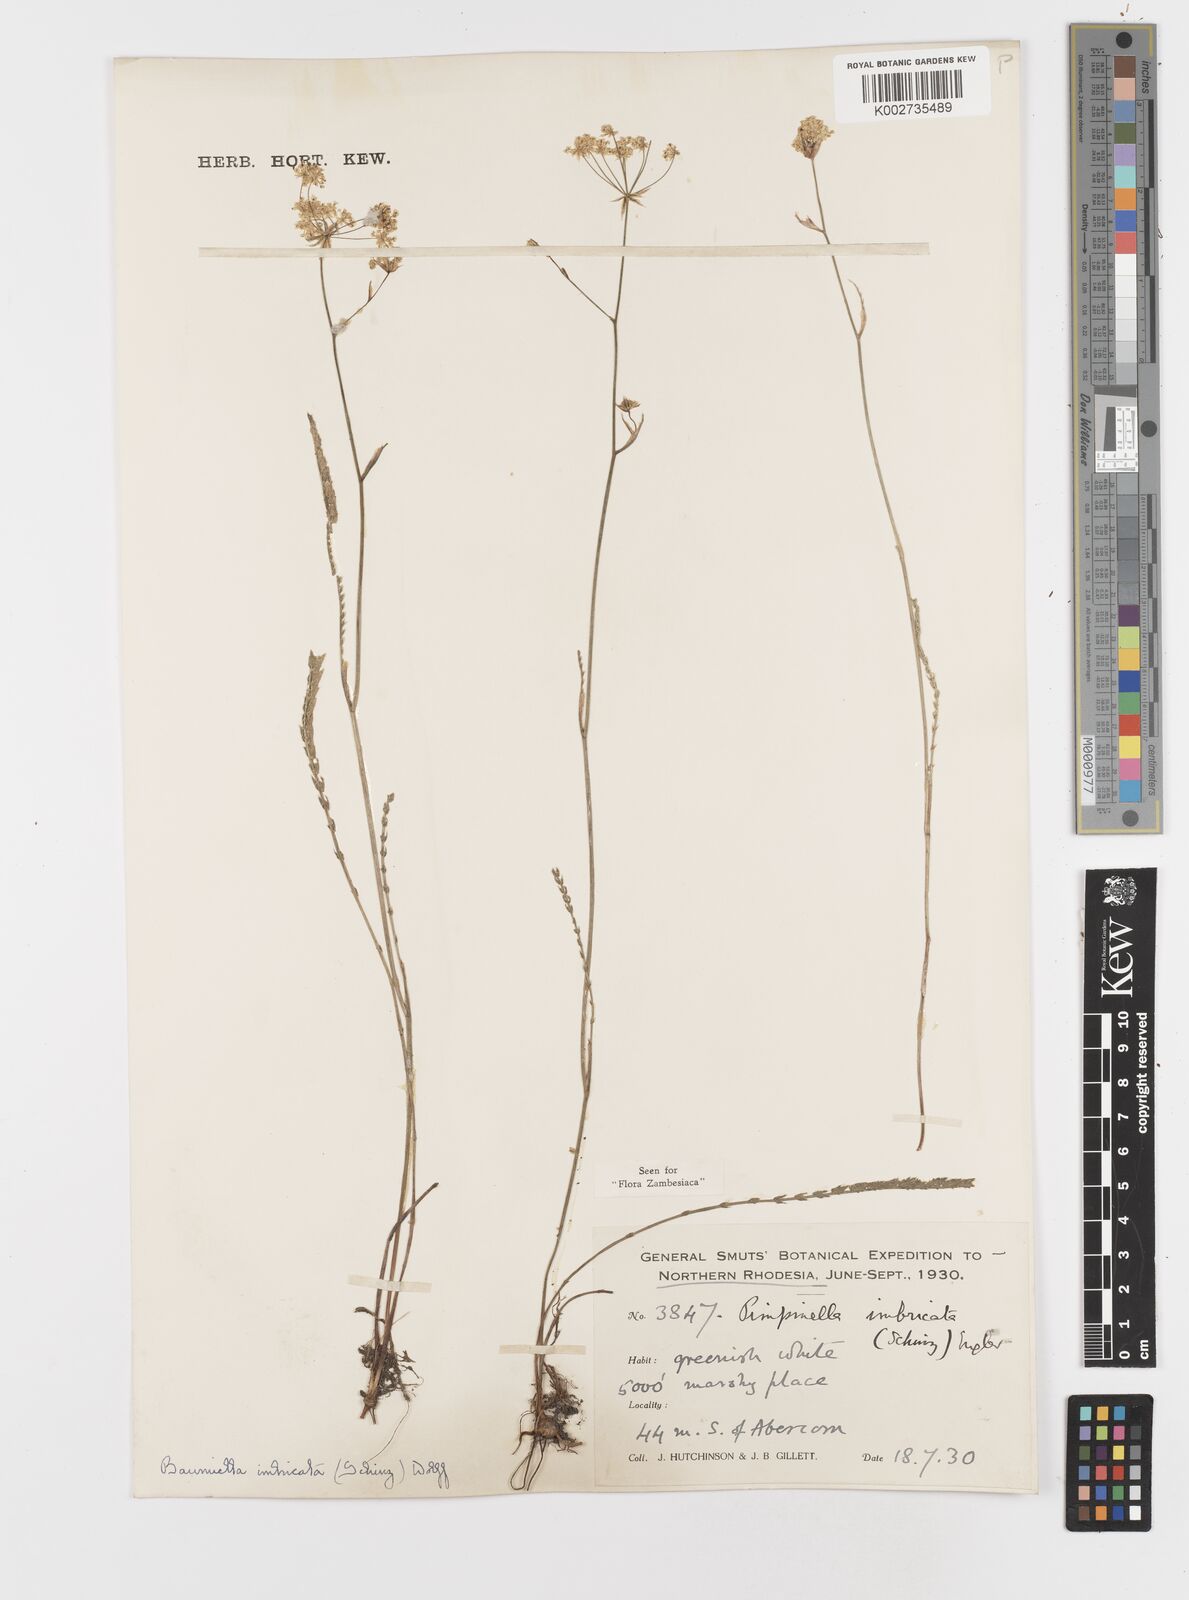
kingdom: Plantae
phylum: Tracheophyta
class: Magnoliopsida
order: Apiales
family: Apiaceae
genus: Berula
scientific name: Berula imbricata
